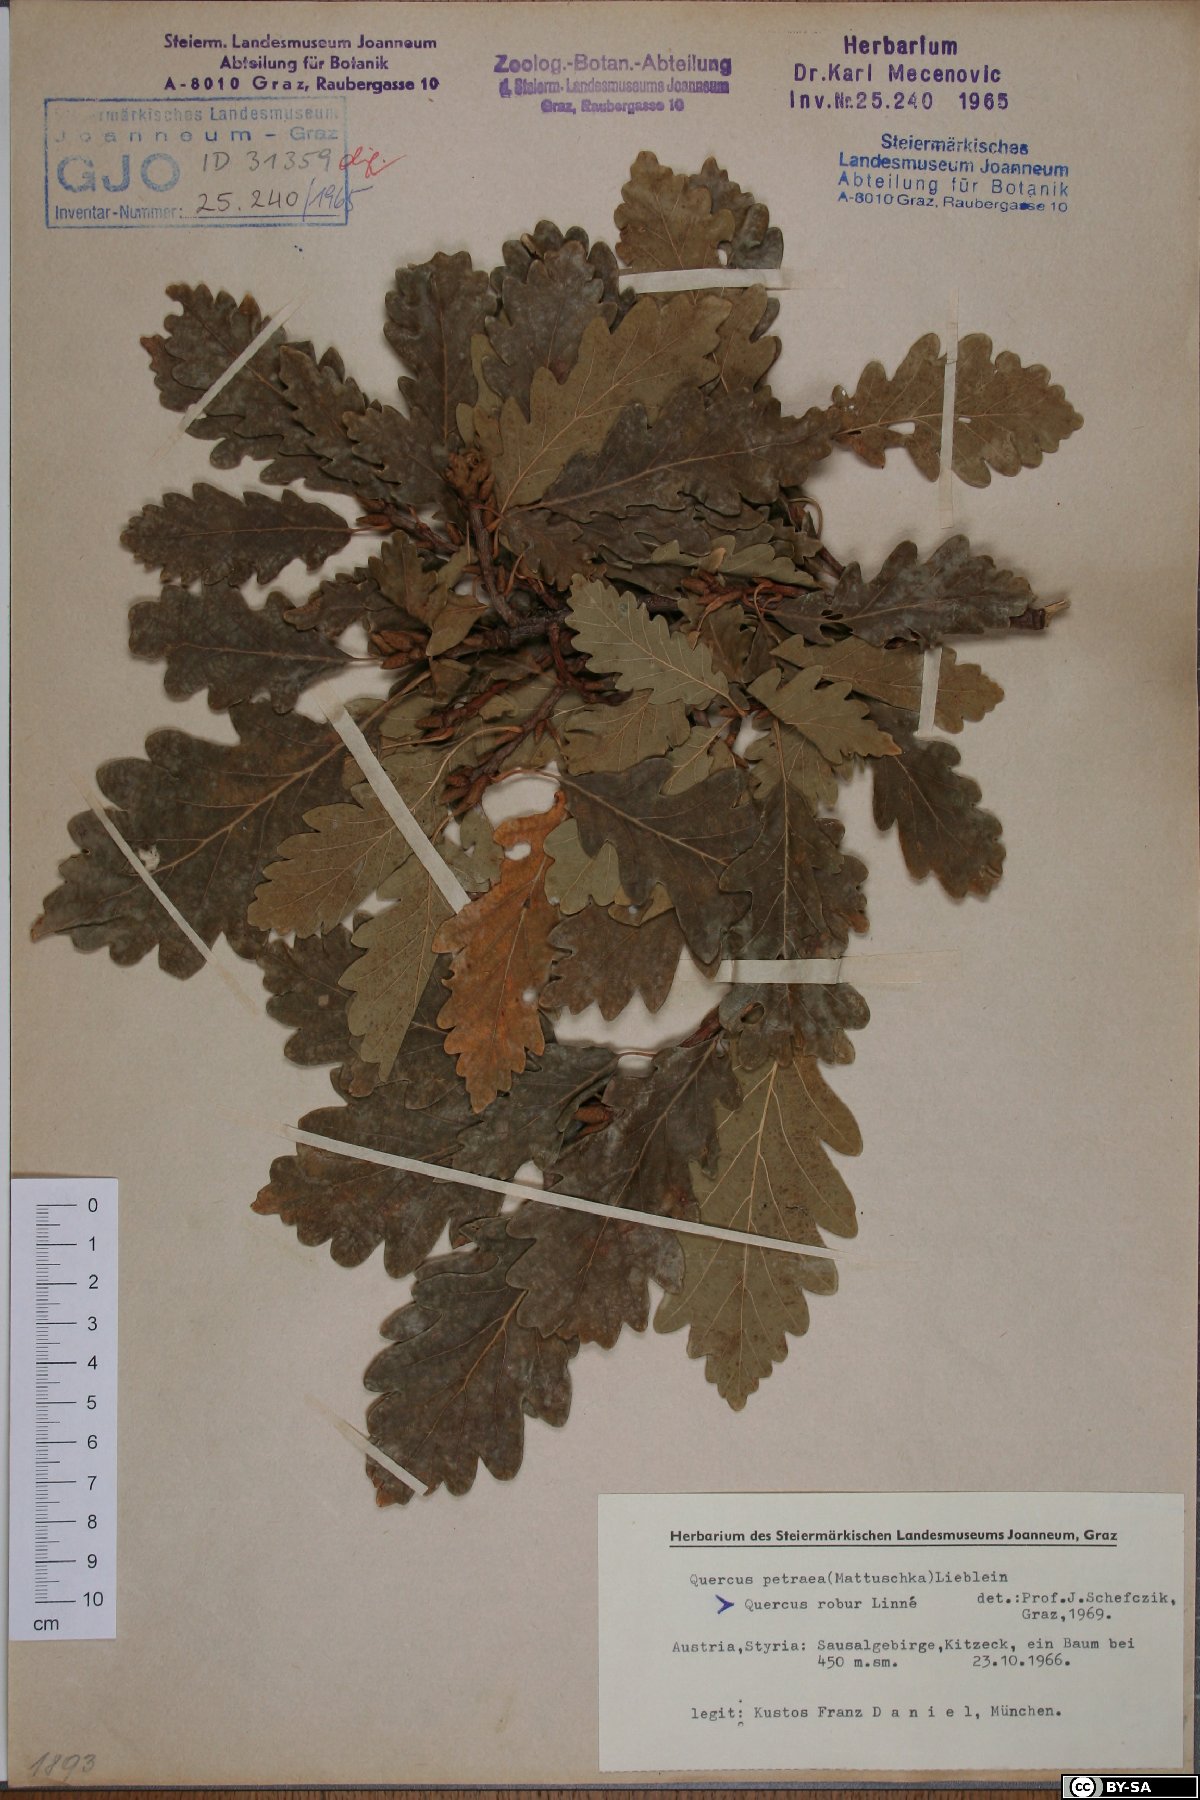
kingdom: Plantae
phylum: Tracheophyta
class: Magnoliopsida
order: Fagales
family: Fagaceae
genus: Quercus
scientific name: Quercus petraea
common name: Sessile oak
